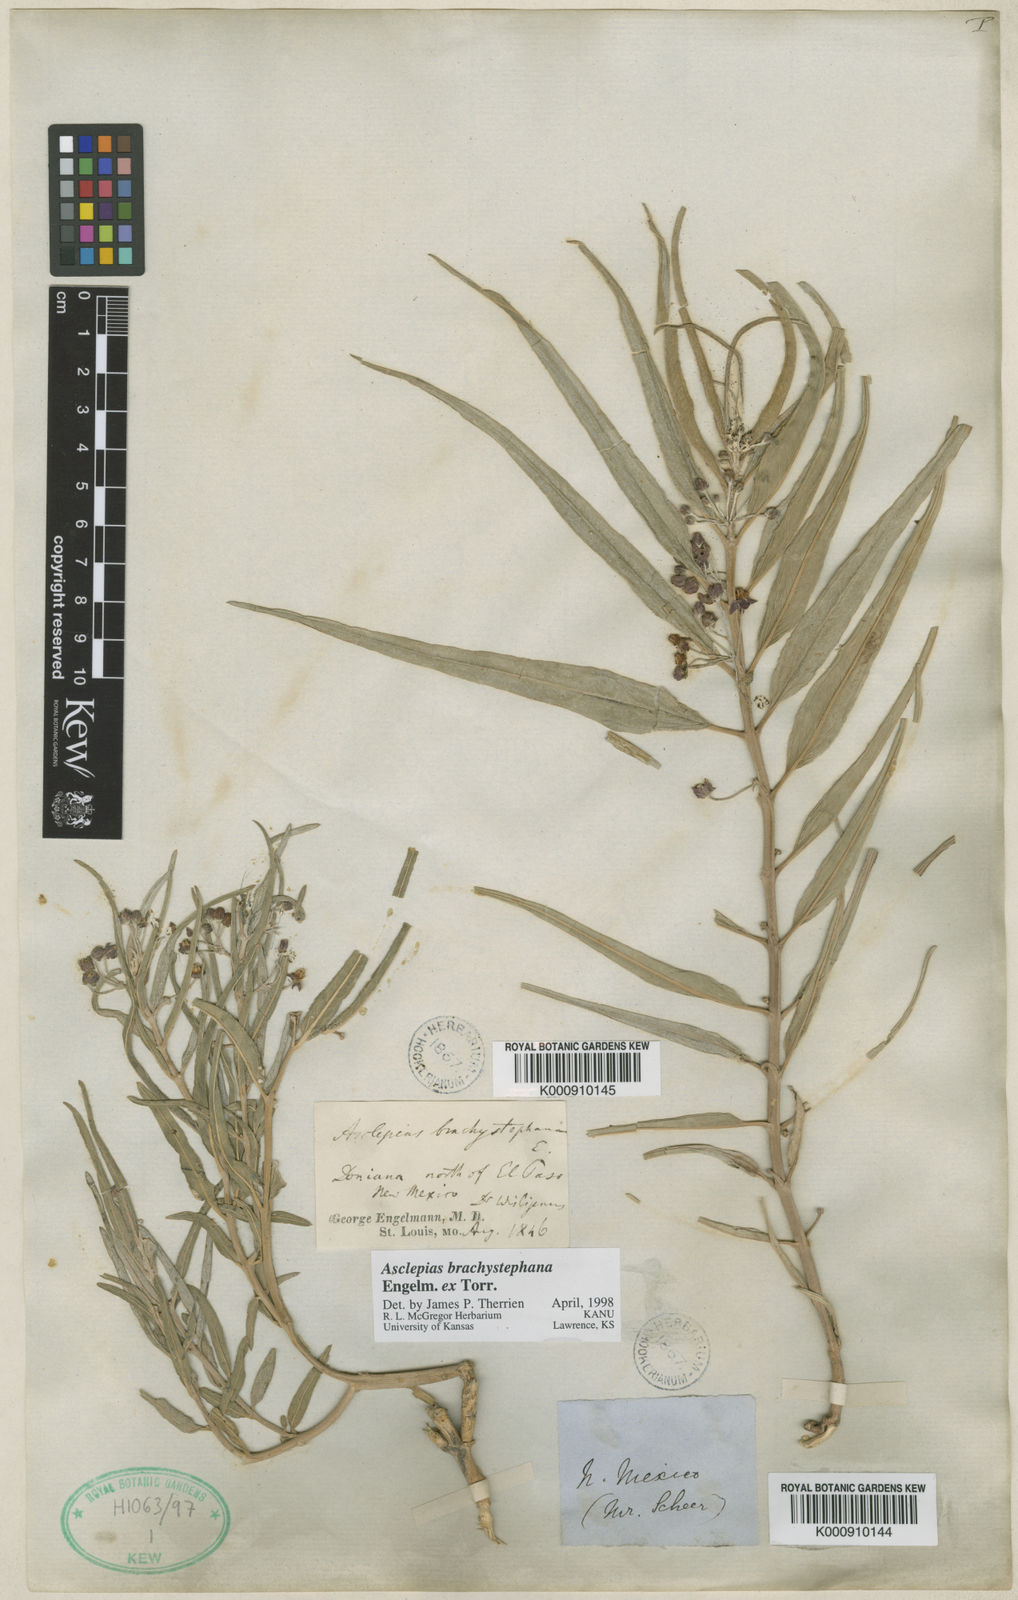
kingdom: Plantae
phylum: Tracheophyta
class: Magnoliopsida
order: Gentianales
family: Apocynaceae
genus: Asclepias
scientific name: Asclepias brachystephana
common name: Shortcrown milkweed
